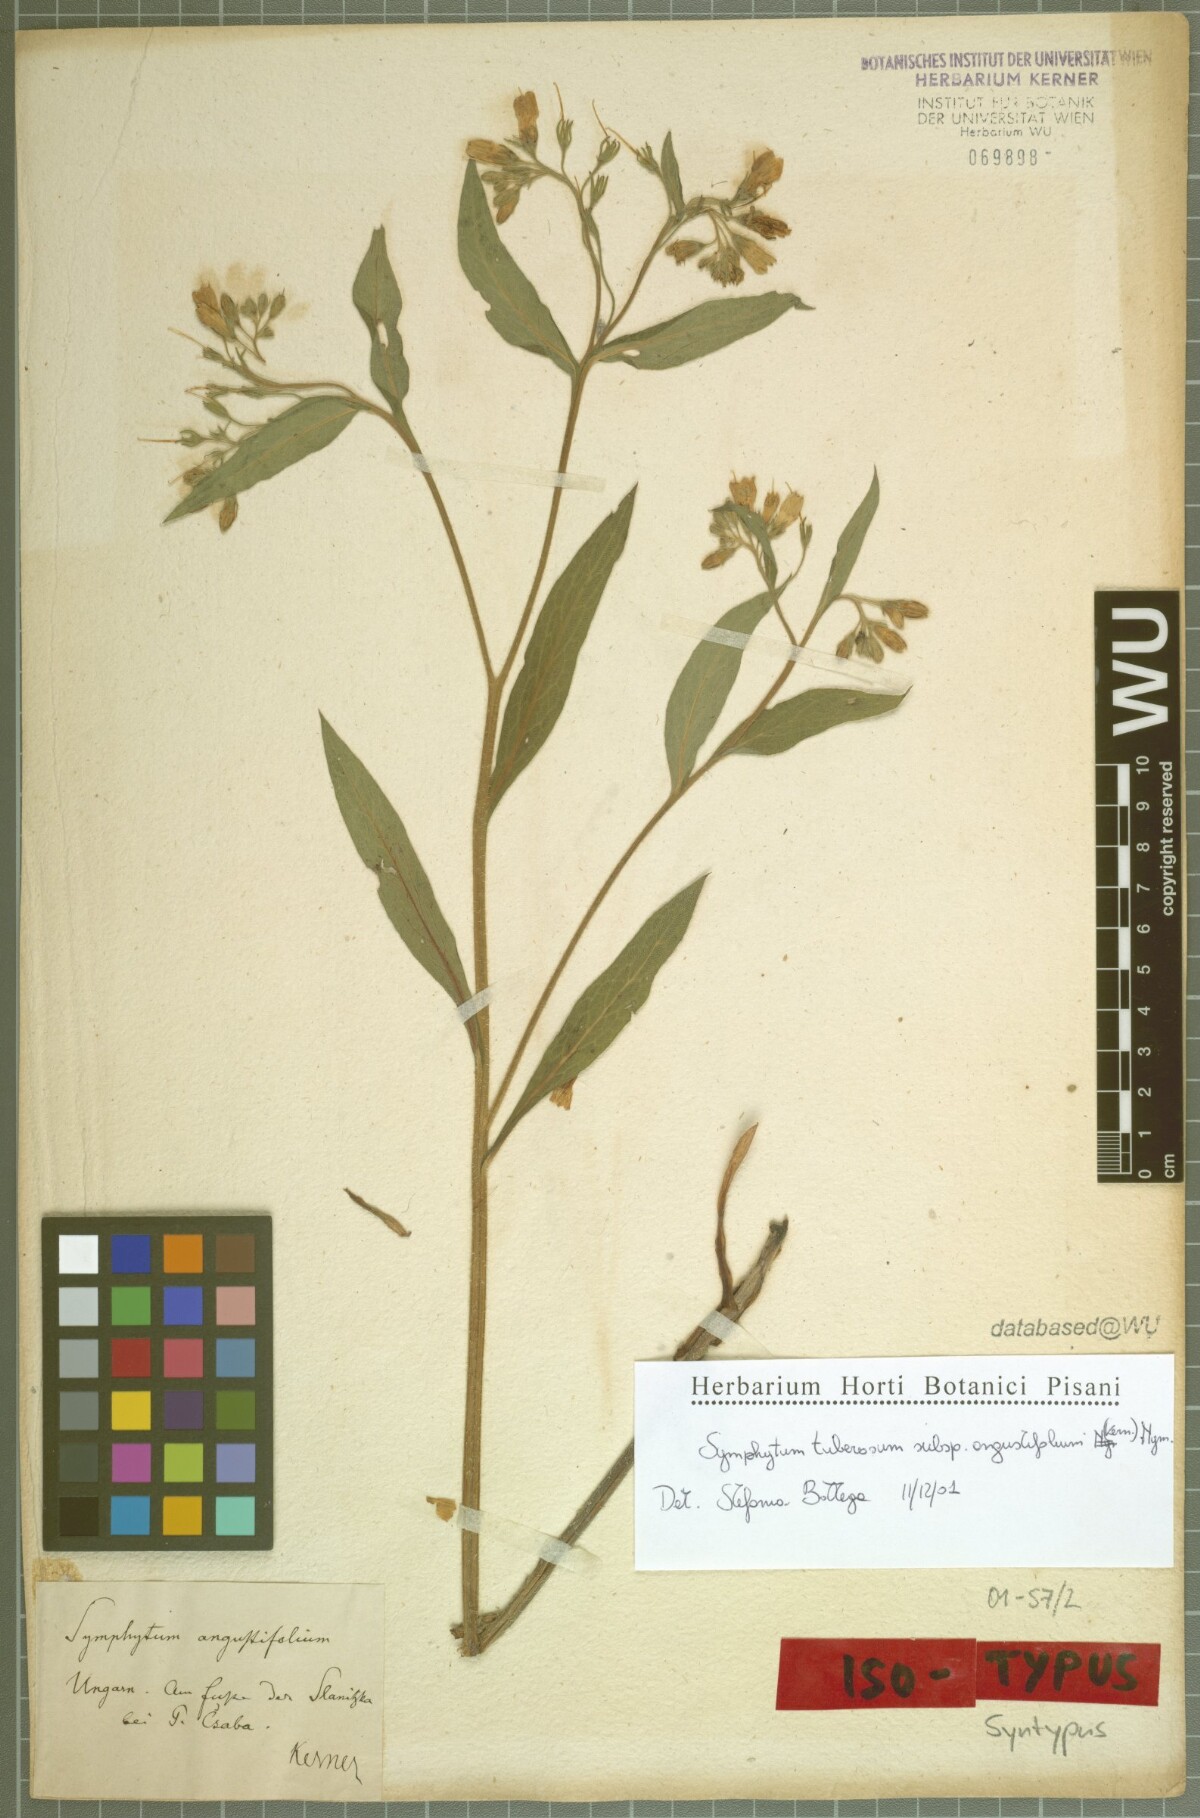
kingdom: Plantae
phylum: Tracheophyta
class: Magnoliopsida
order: Boraginales
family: Boraginaceae
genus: Symphytum
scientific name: Symphytum tuberosum
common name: Tuberous comfrey
